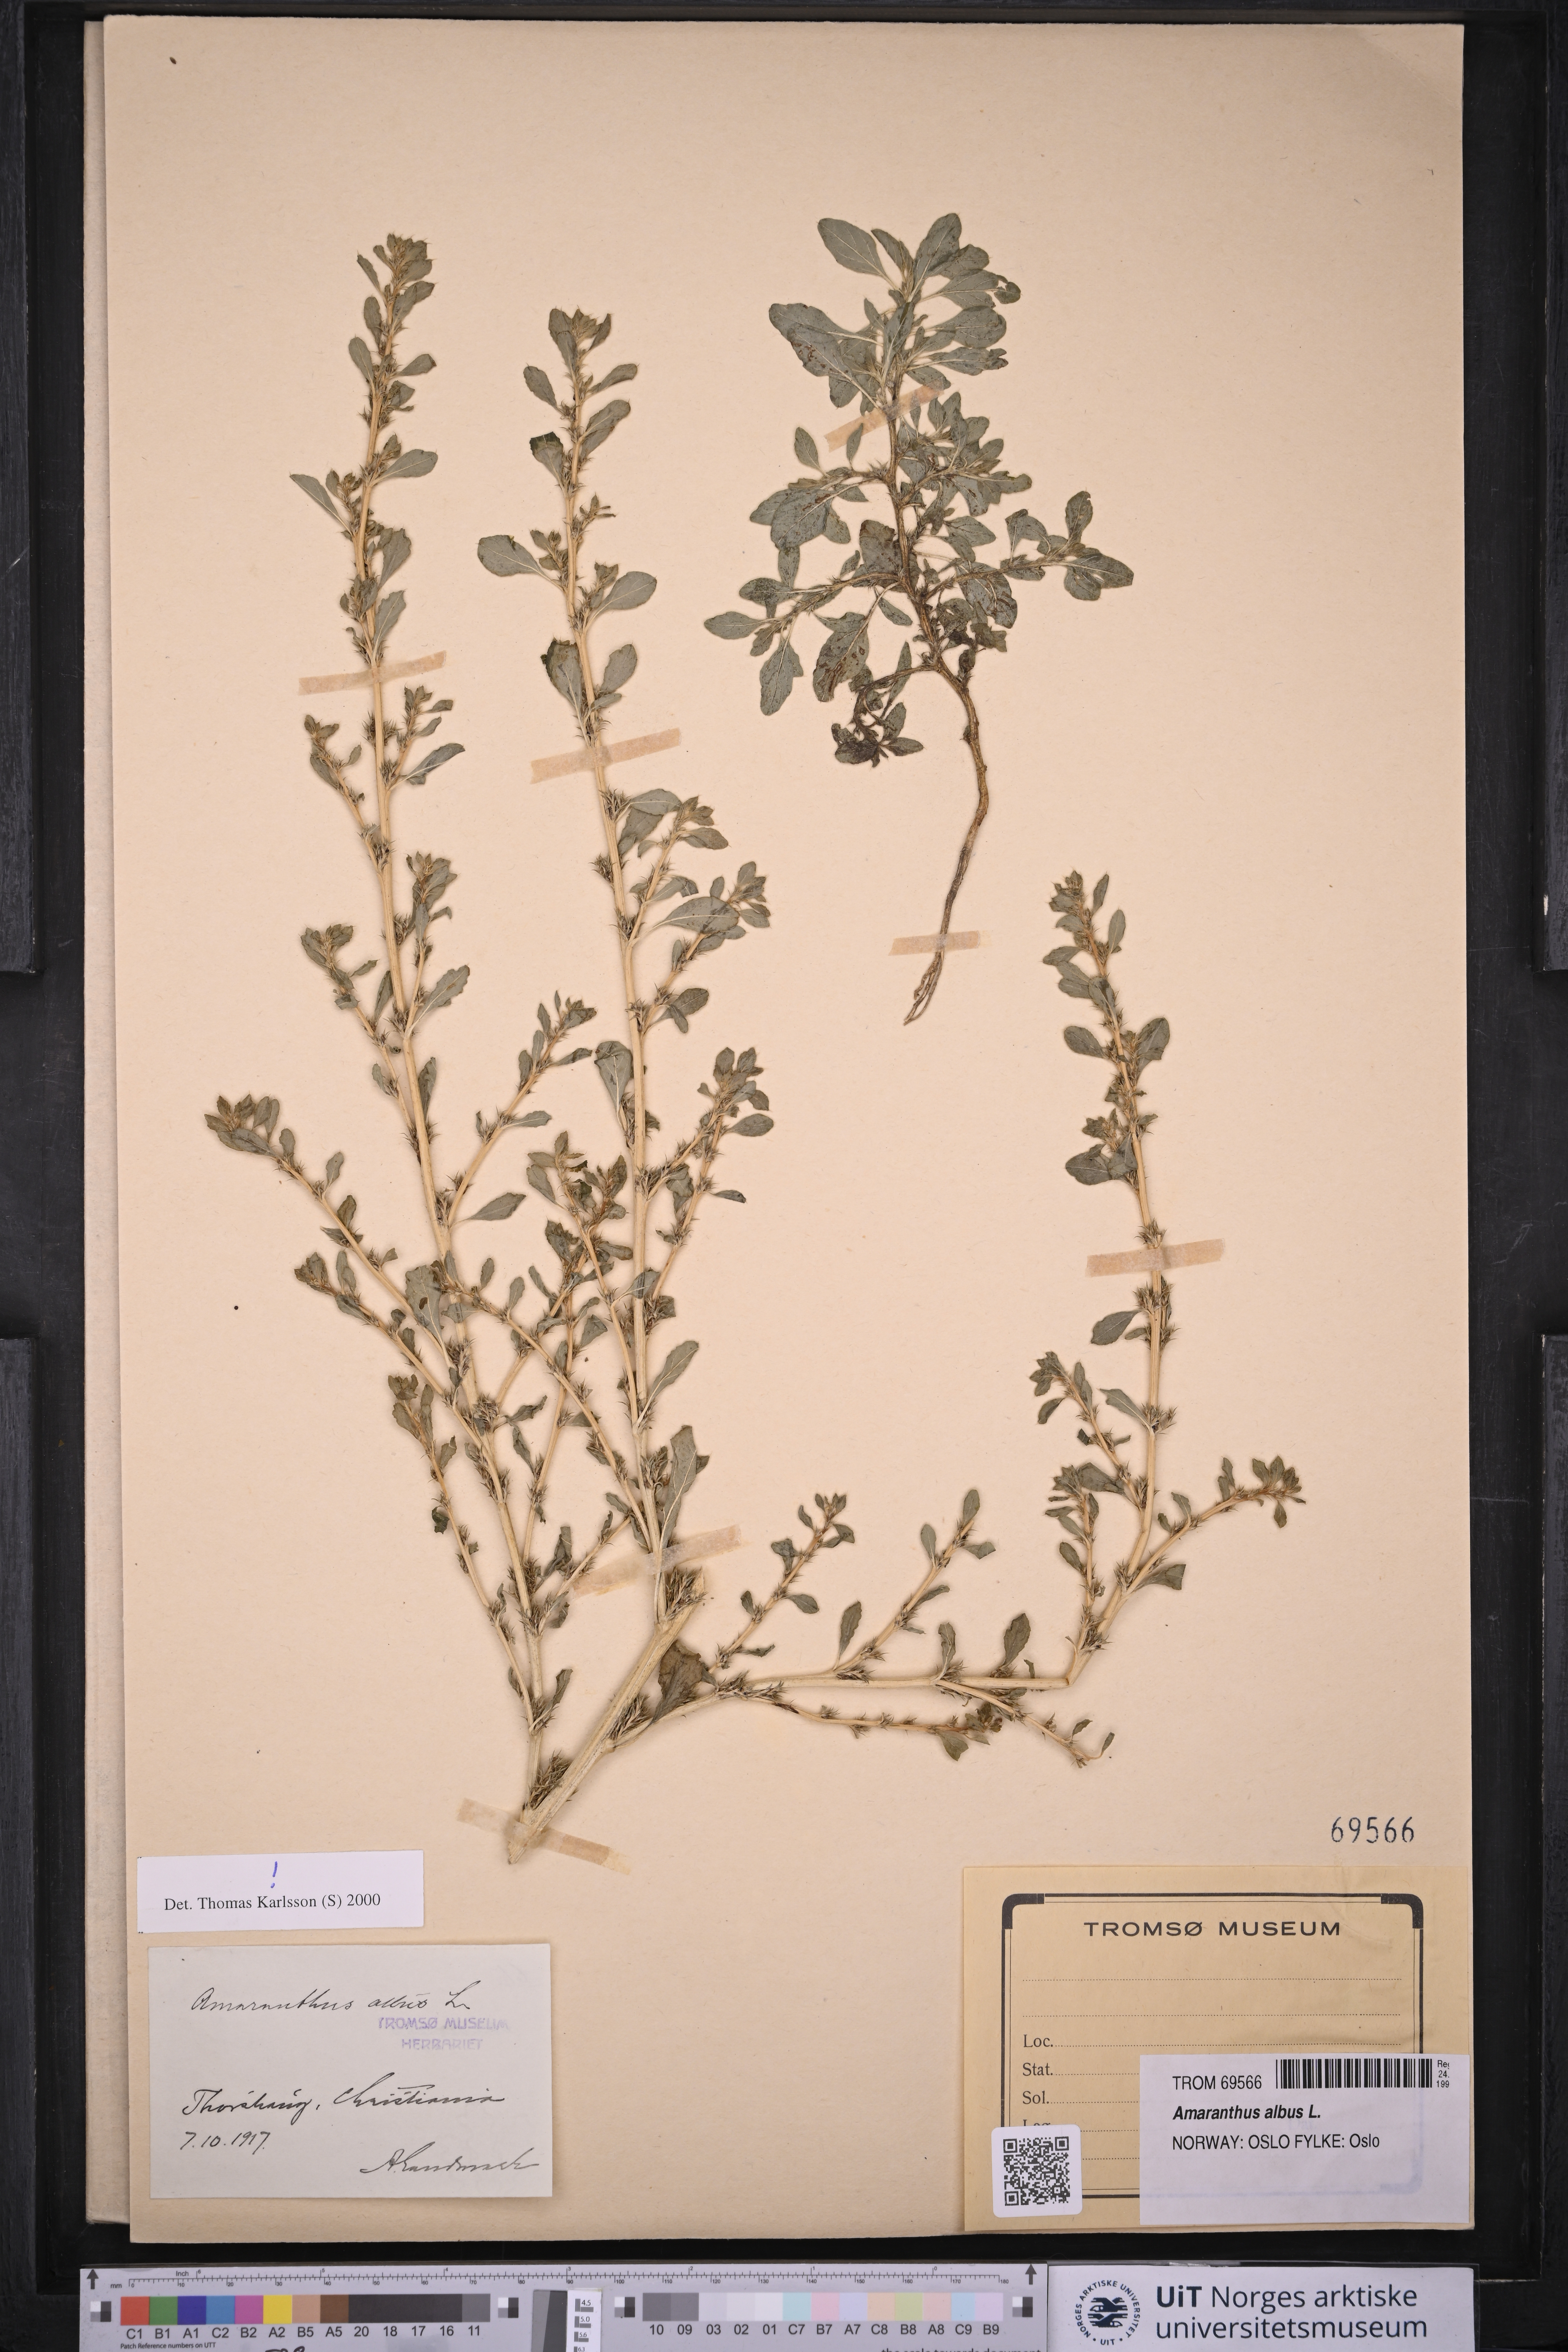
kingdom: Plantae
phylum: Tracheophyta
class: Magnoliopsida
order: Caryophyllales
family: Amaranthaceae
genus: Amaranthus
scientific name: Amaranthus albus
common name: White pigweed
